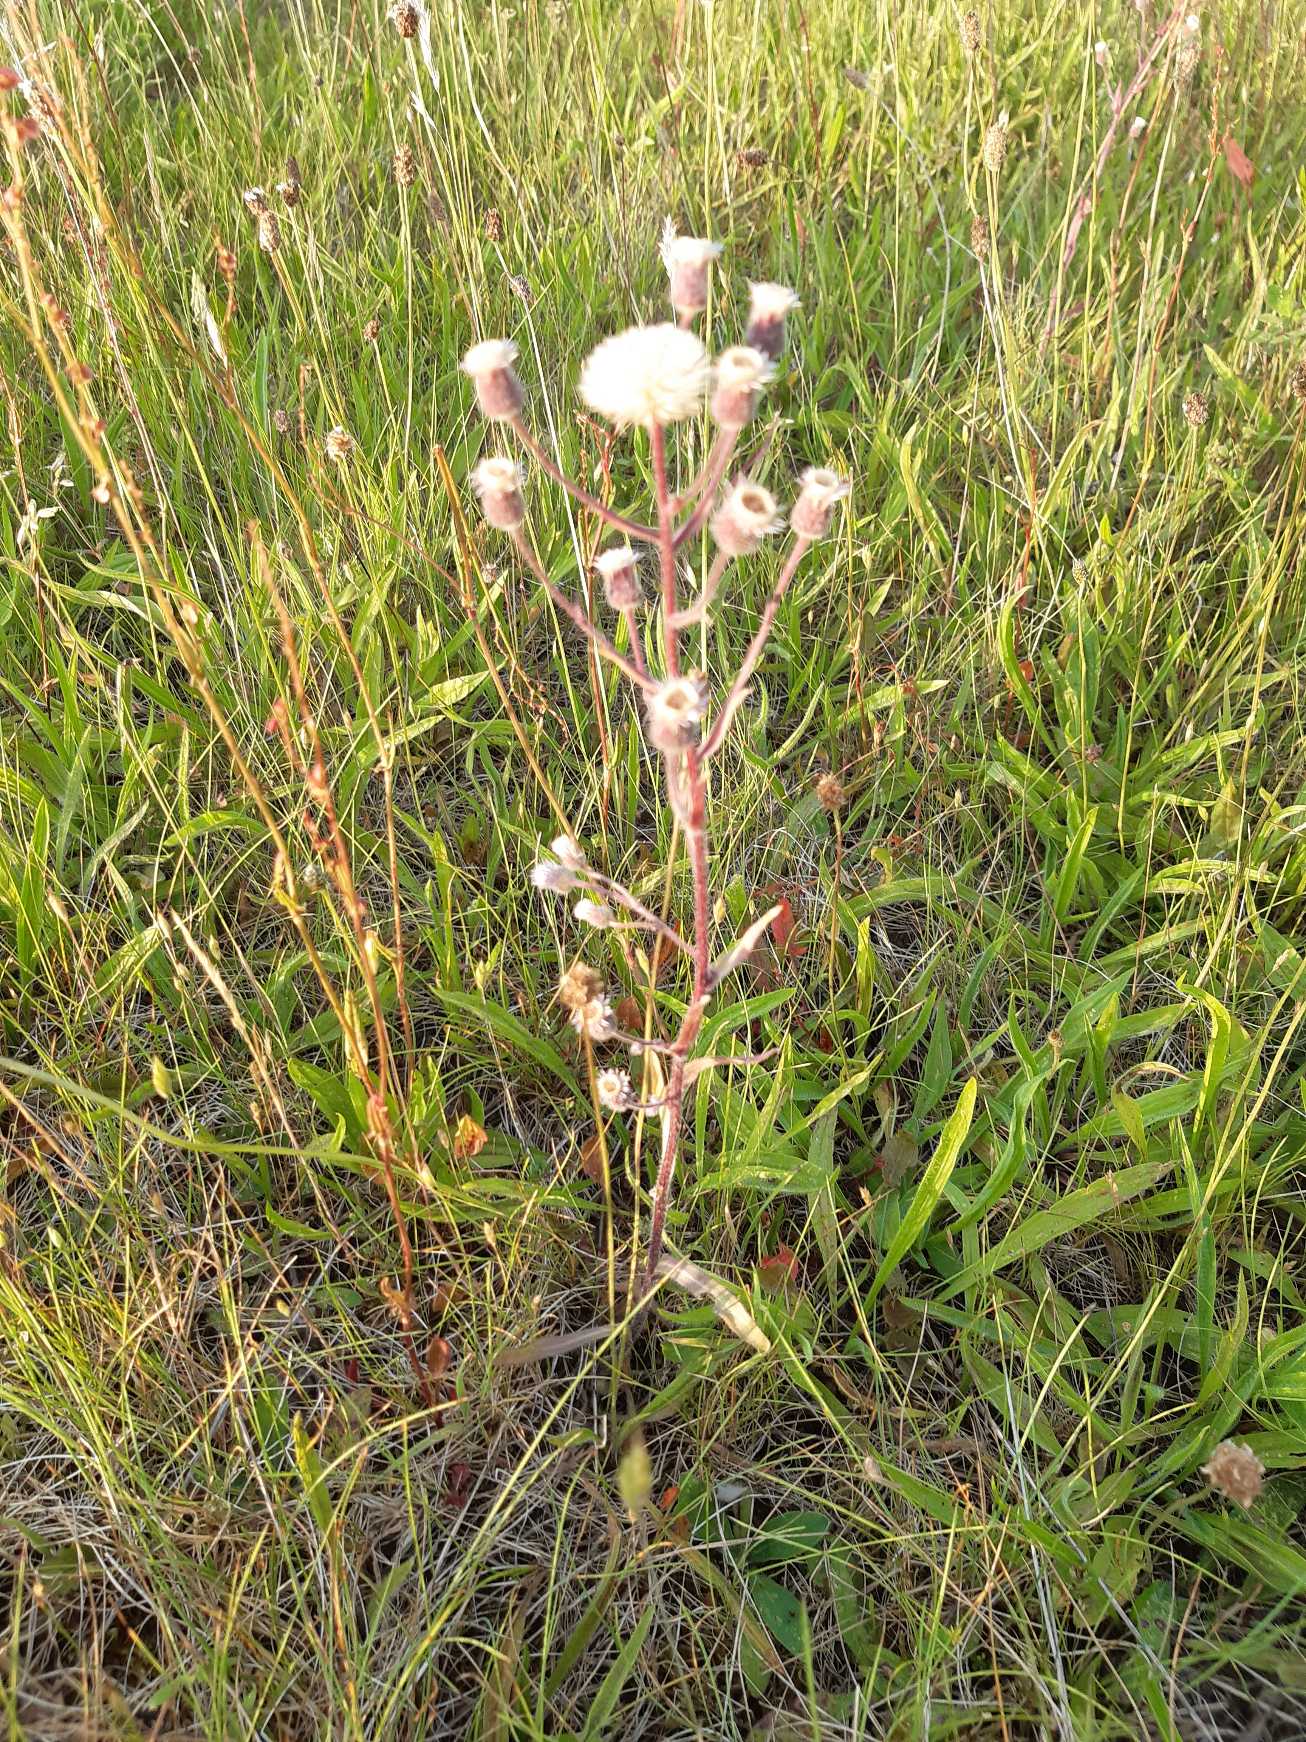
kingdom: Plantae
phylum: Tracheophyta
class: Magnoliopsida
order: Asterales
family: Asteraceae
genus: Erigeron
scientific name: Erigeron acris
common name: Bitter bakkestjerne
